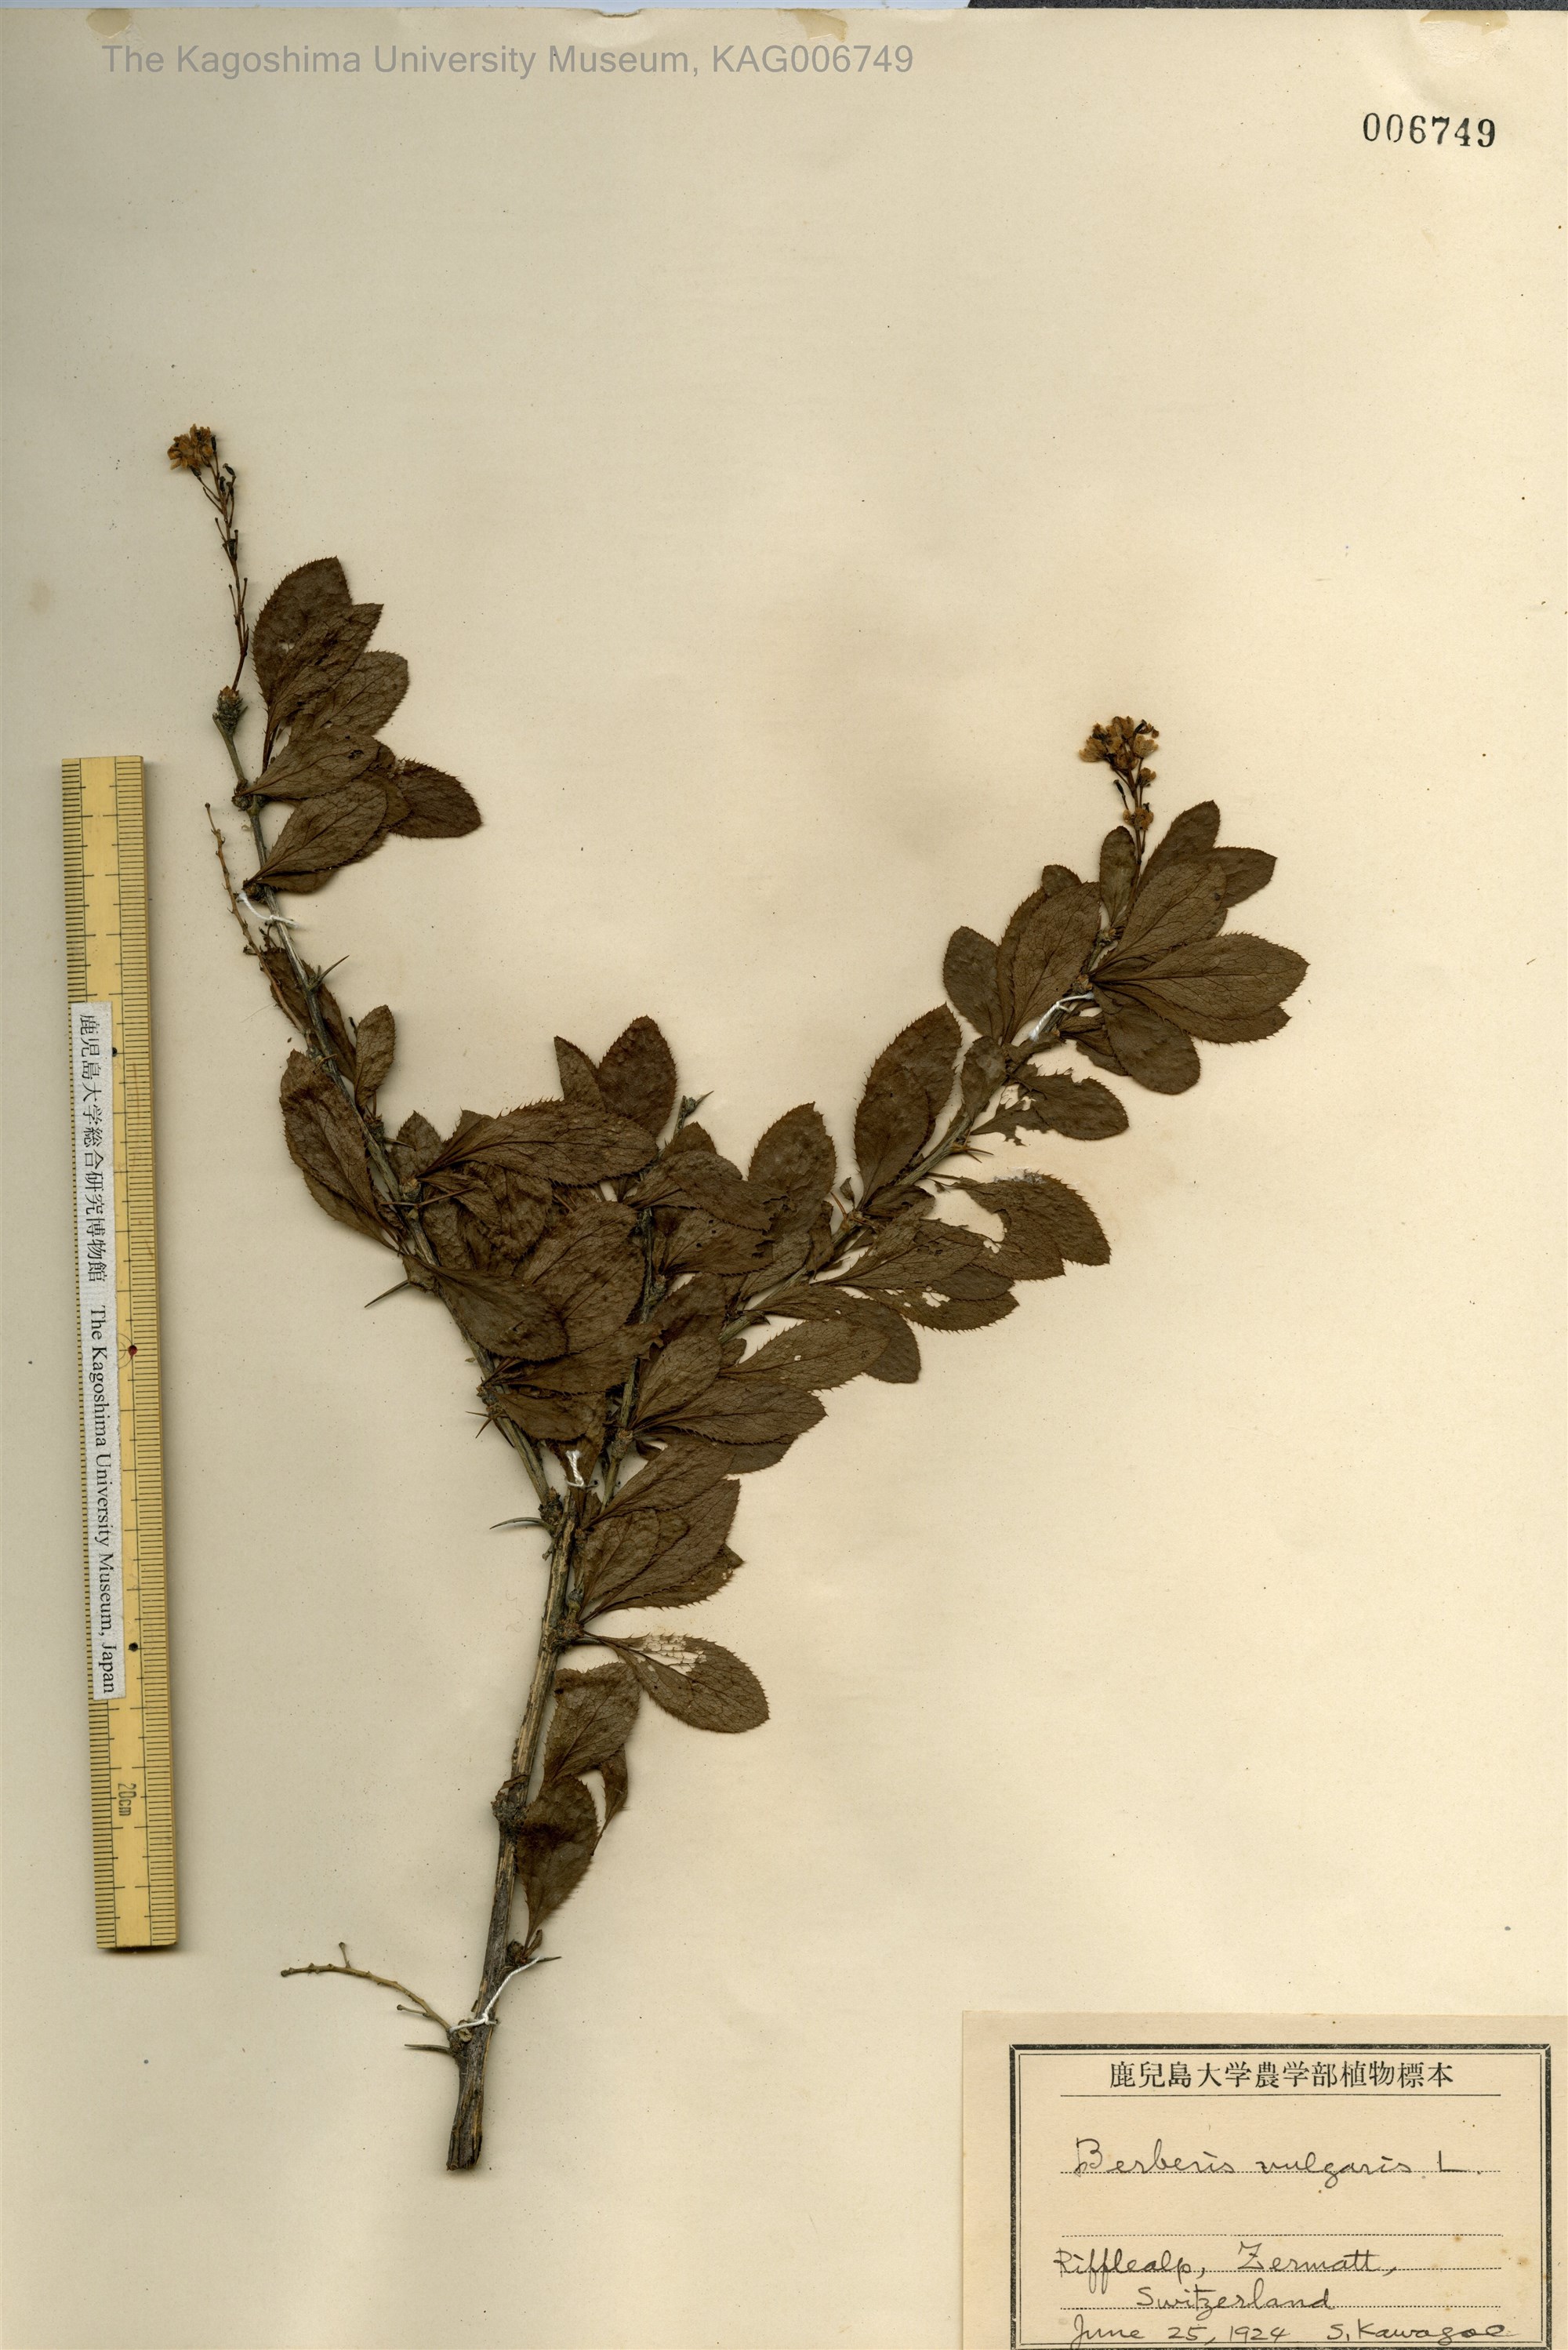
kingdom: Plantae
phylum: Tracheophyta
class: Magnoliopsida
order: Ranunculales
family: Berberidaceae
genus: Berberis
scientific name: Berberis vulgaris
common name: Barberry
